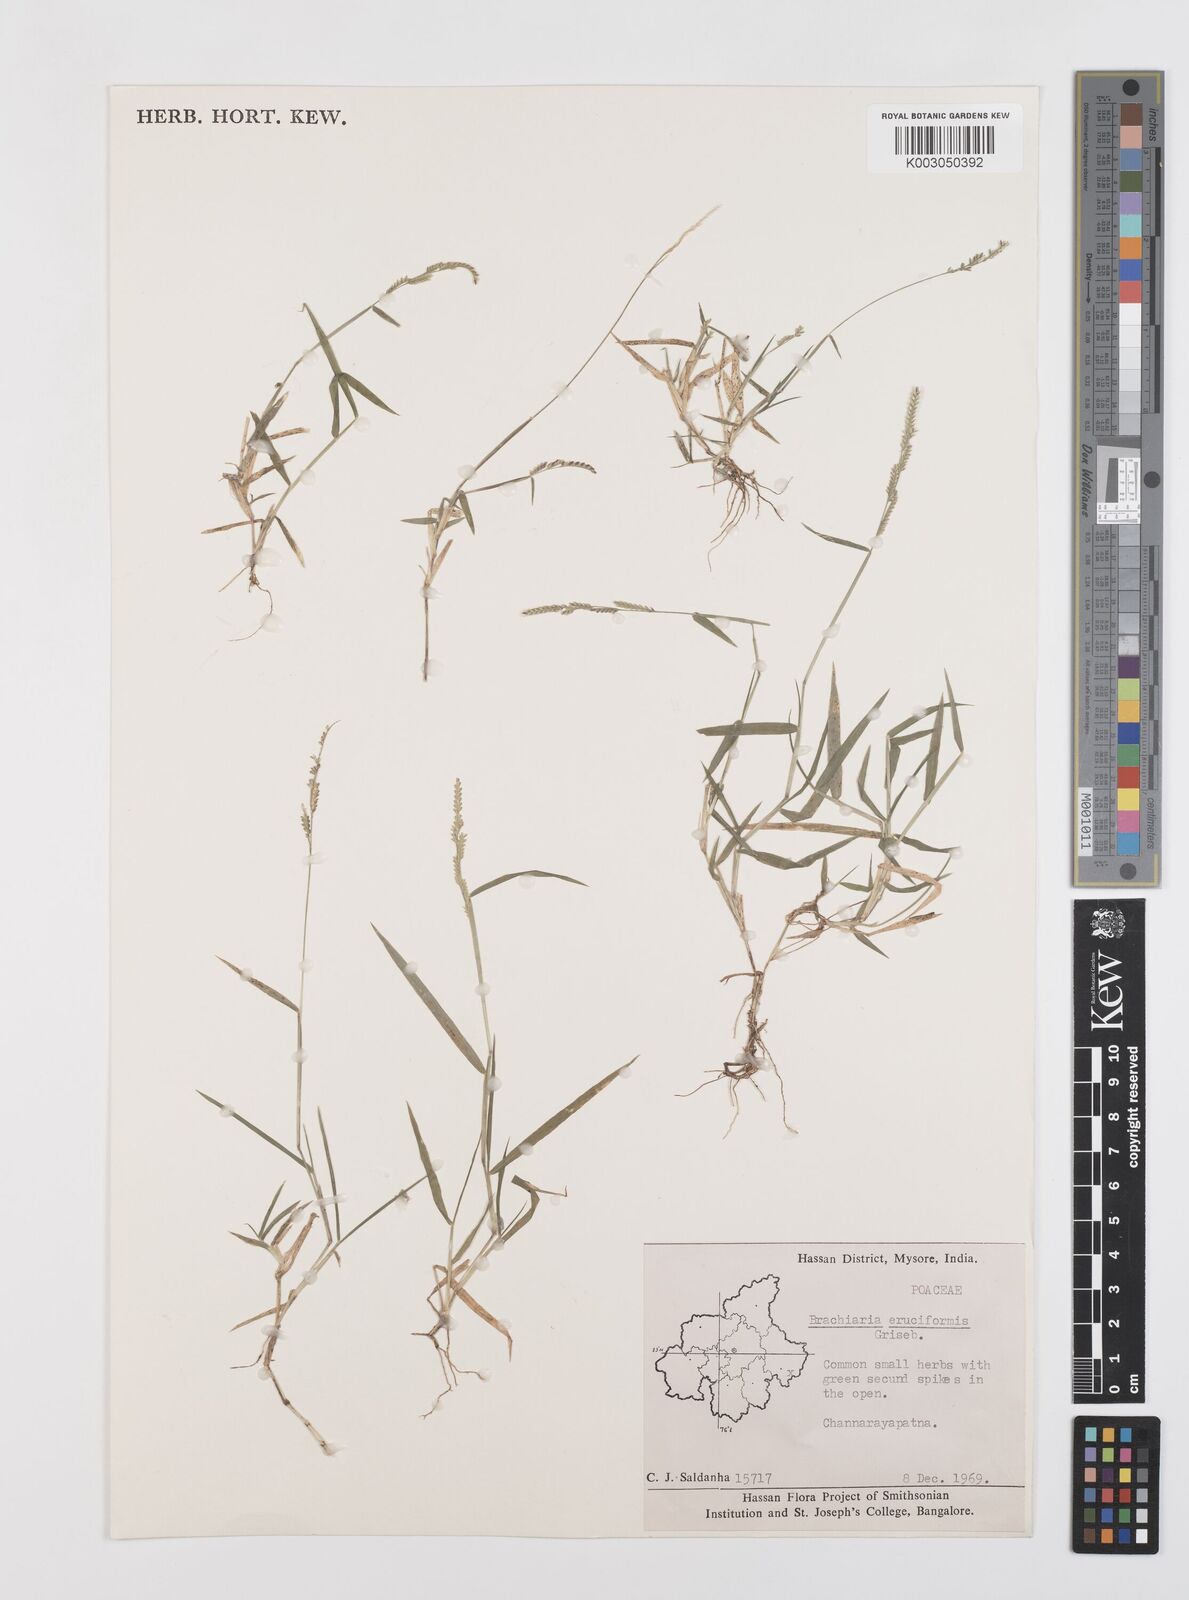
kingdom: Plantae
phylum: Tracheophyta
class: Liliopsida
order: Poales
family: Poaceae
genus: Moorochloa
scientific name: Moorochloa eruciformis
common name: Sweet signalgrass
